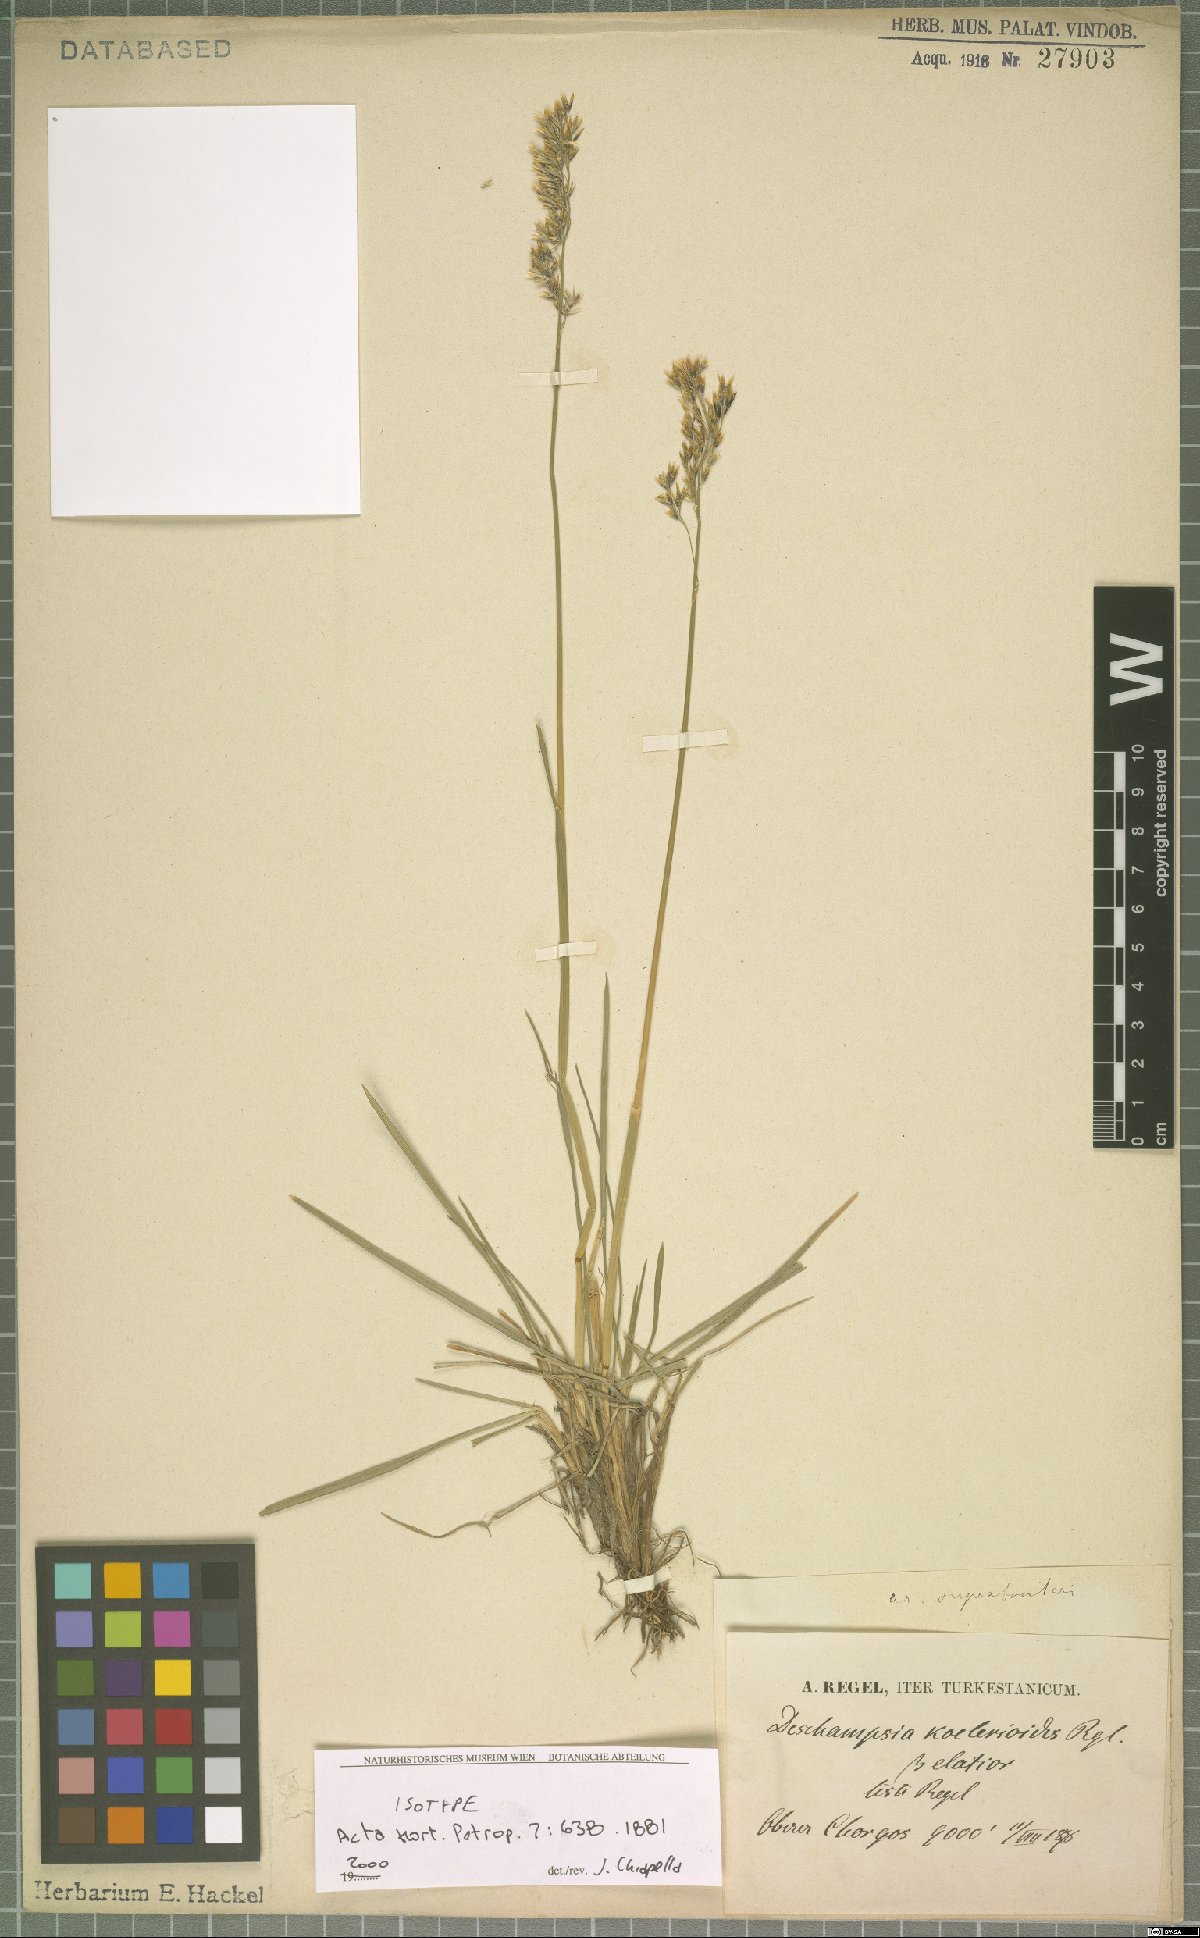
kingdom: Plantae
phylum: Tracheophyta
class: Liliopsida
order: Poales
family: Poaceae
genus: Deschampsia
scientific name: Deschampsia koelerioides
